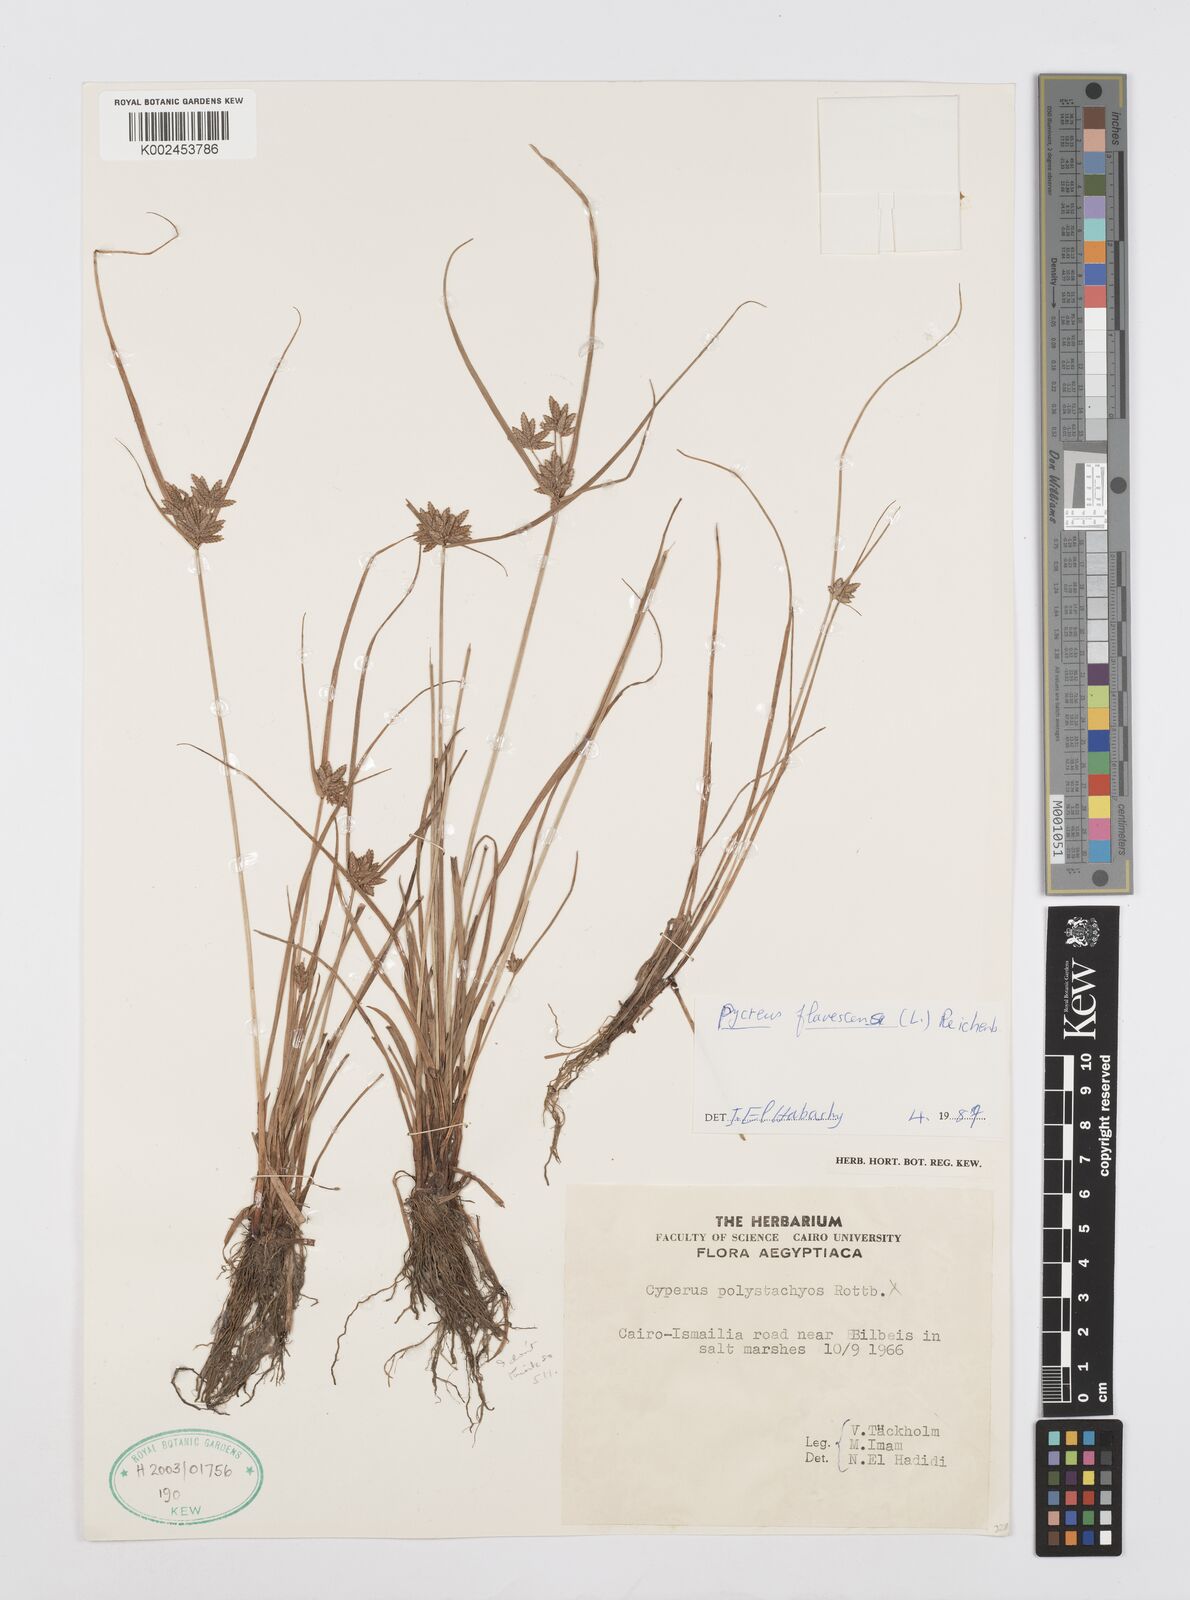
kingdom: Plantae
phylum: Tracheophyta
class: Liliopsida
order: Poales
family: Cyperaceae
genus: Cyperus
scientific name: Cyperus flavescens
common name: Yellow galingale
